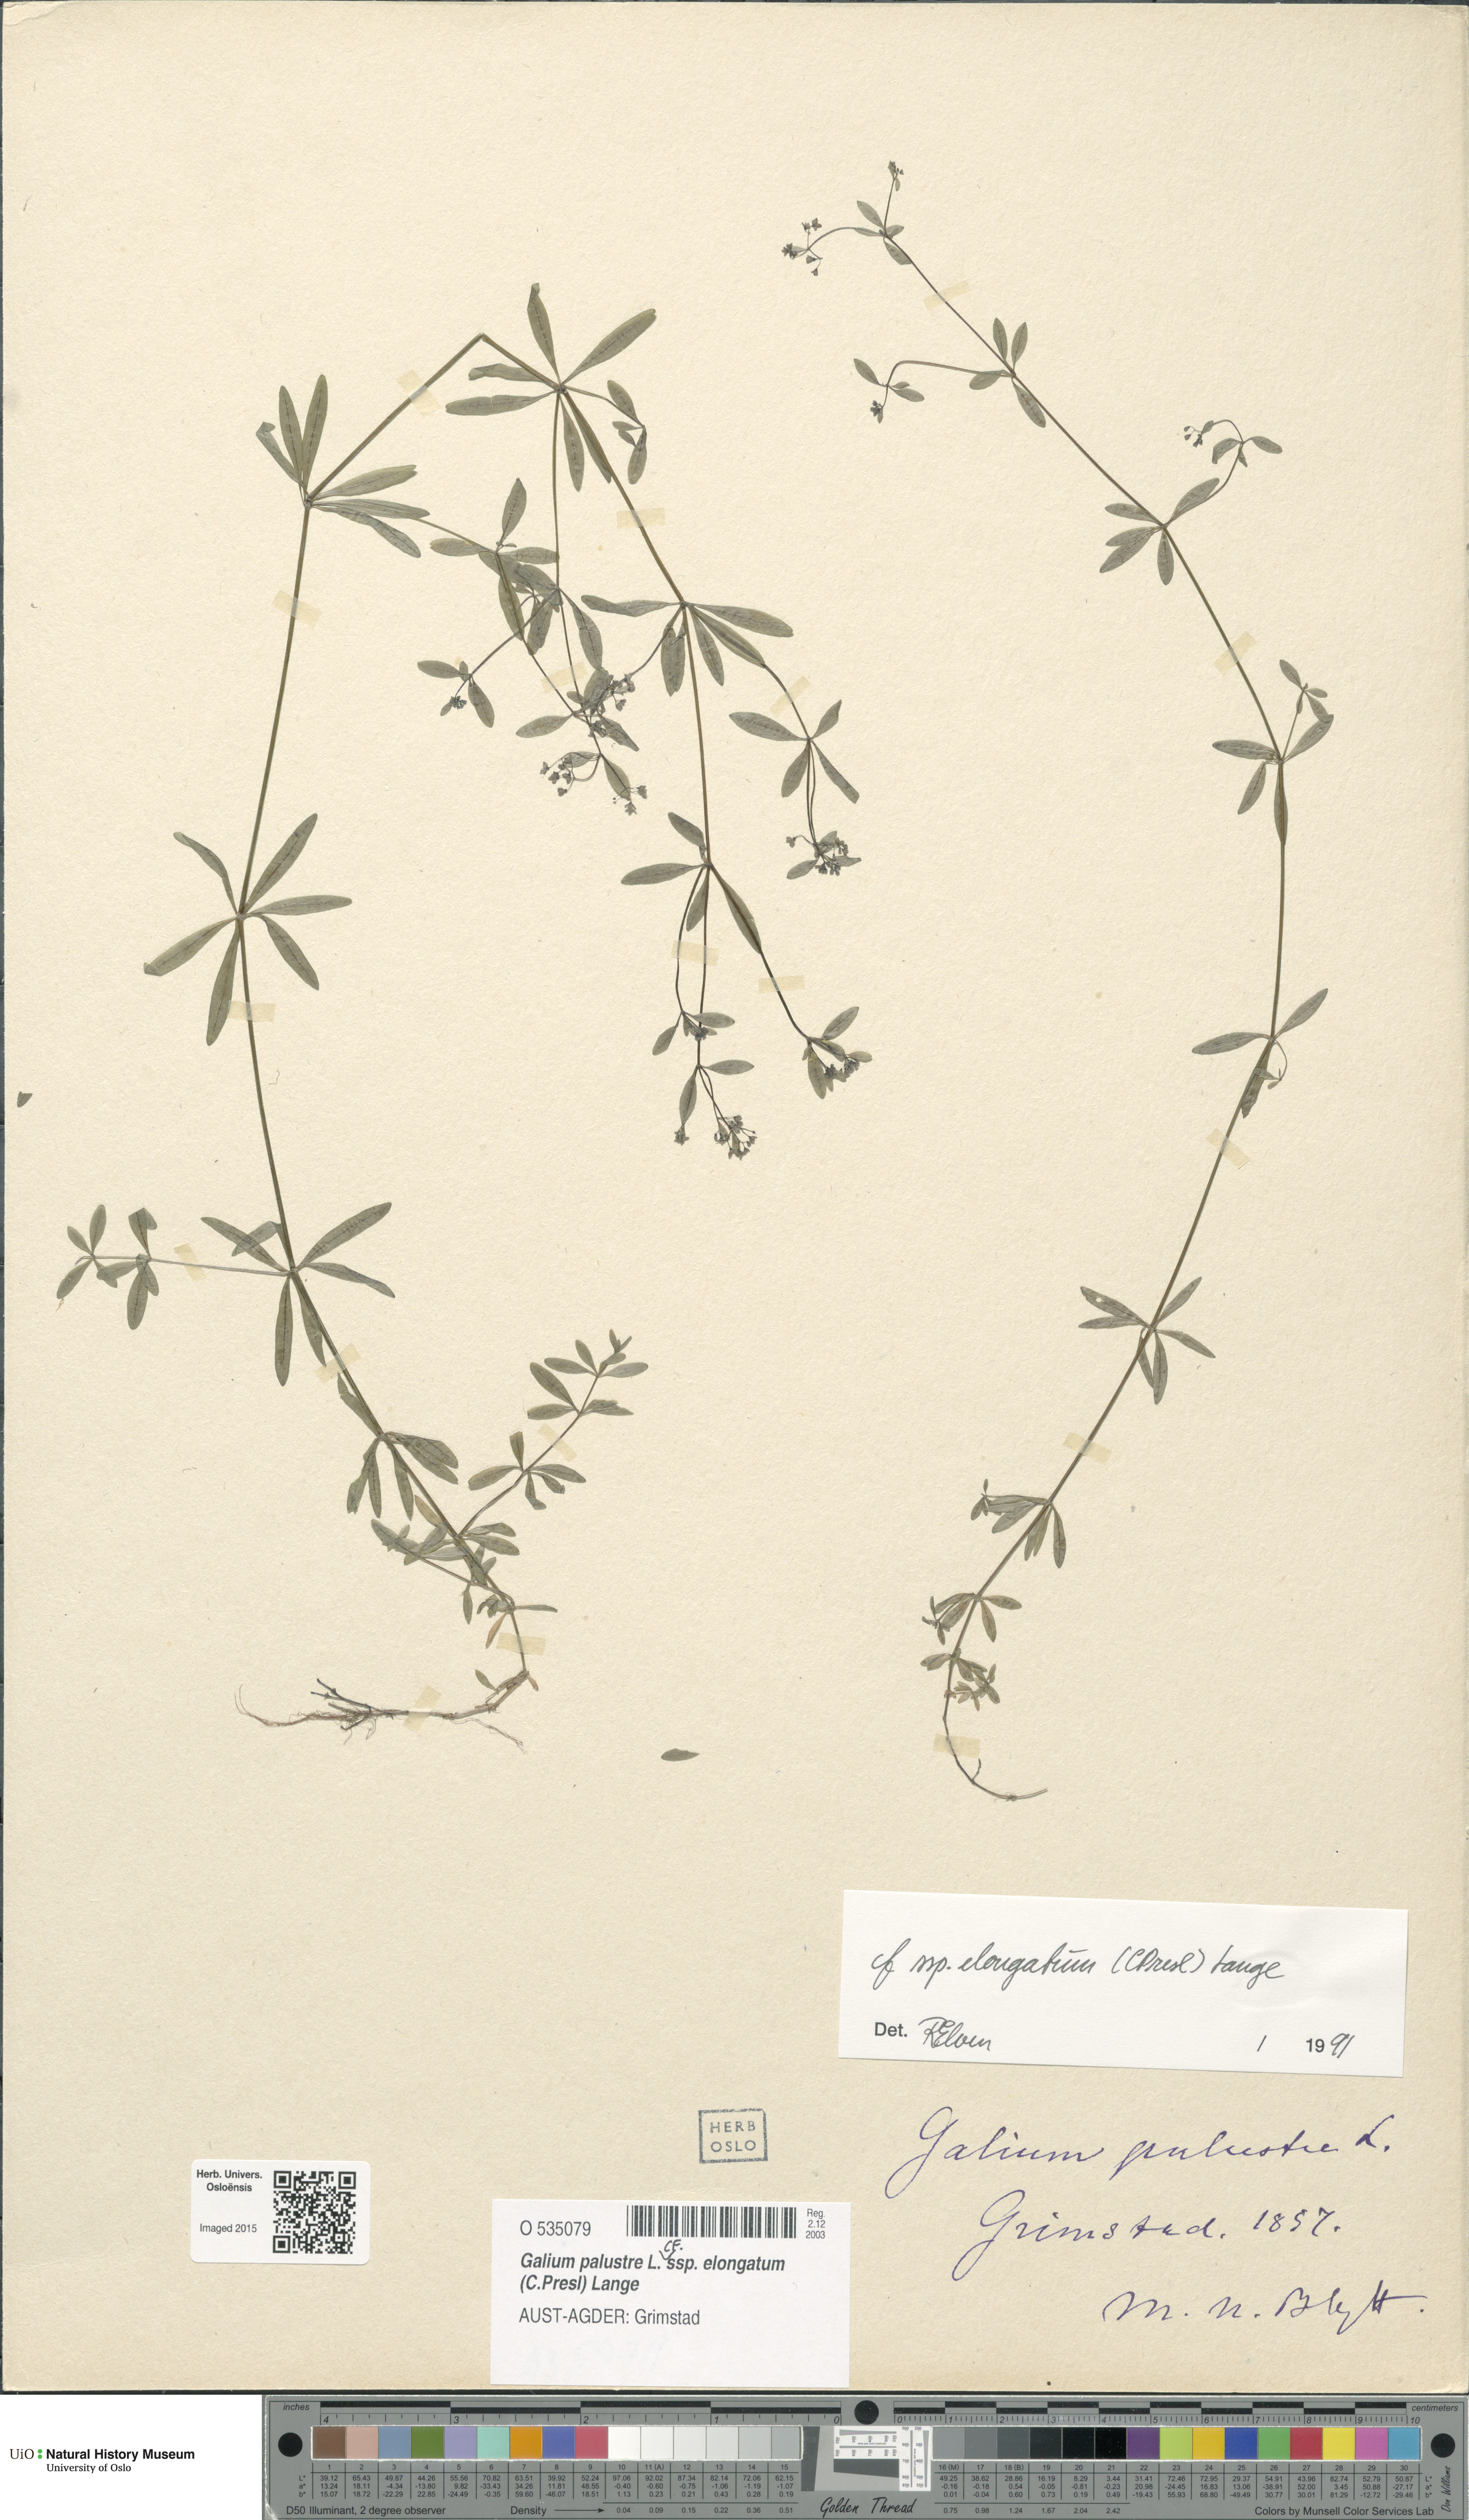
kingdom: Plantae
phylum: Tracheophyta
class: Magnoliopsida
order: Gentianales
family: Rubiaceae
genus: Galium
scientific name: Galium elongatum
